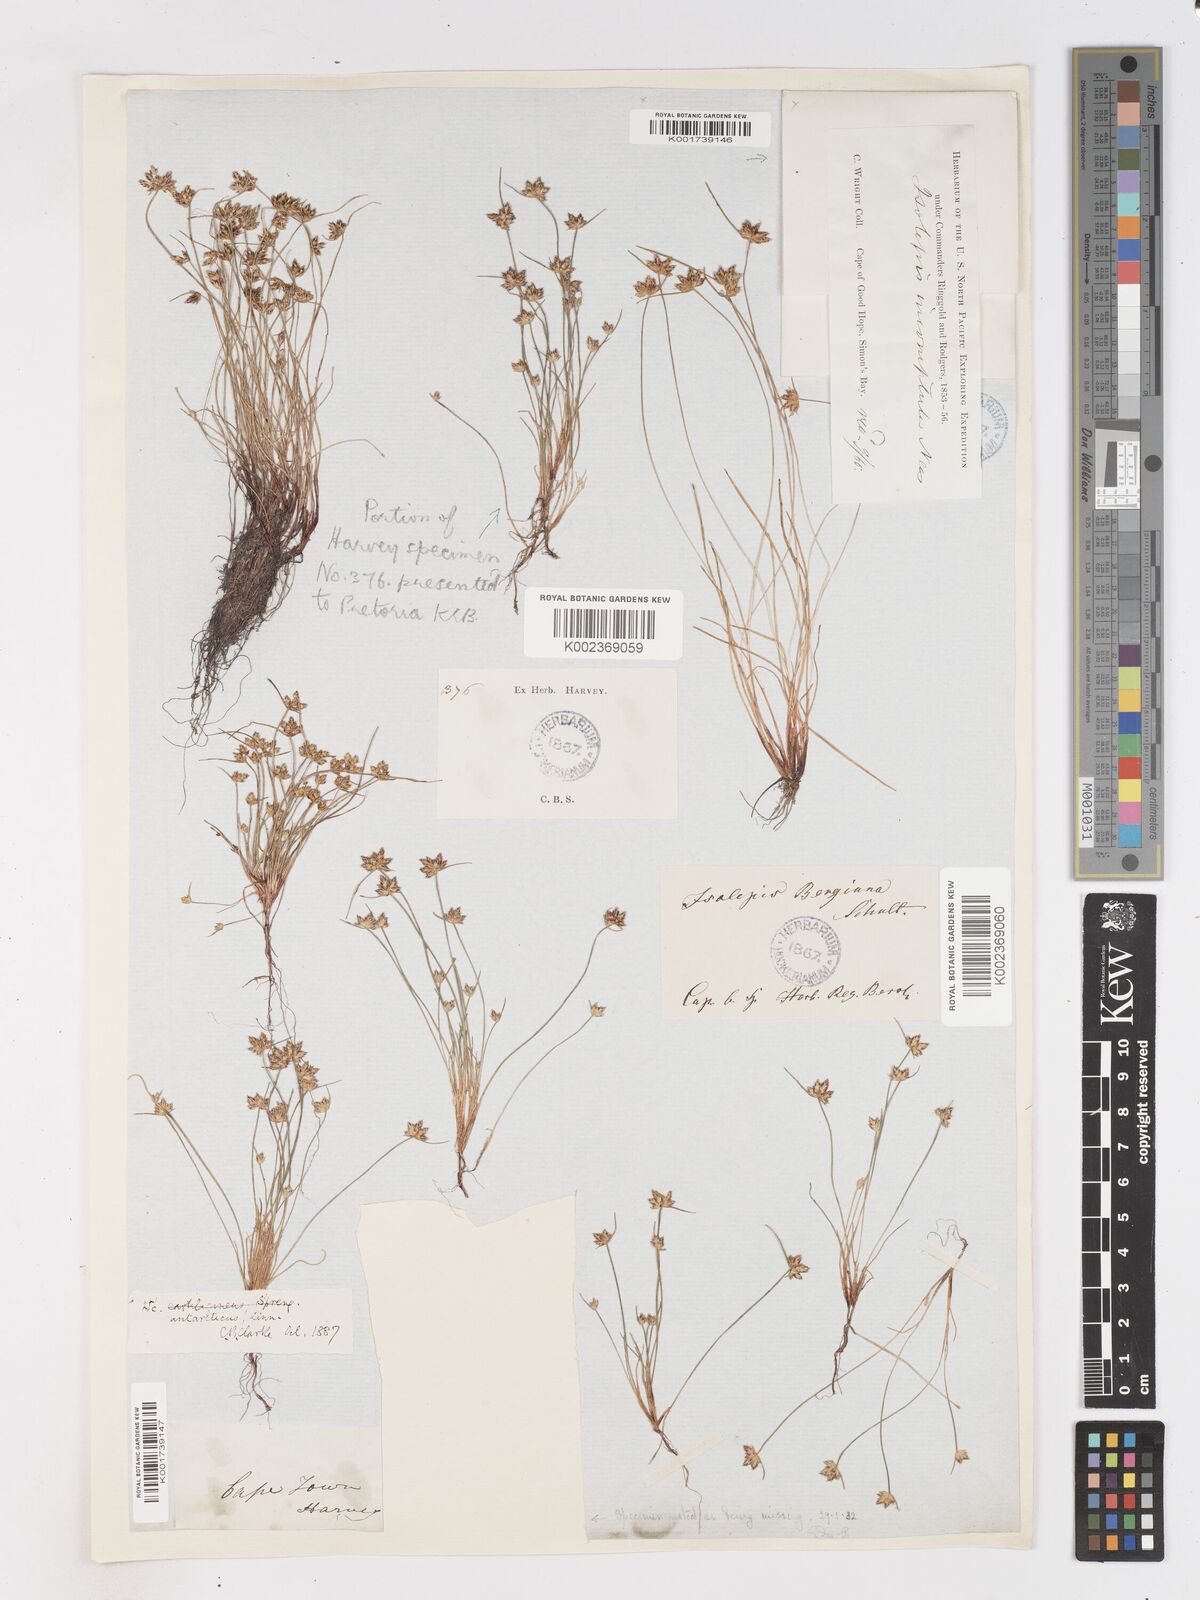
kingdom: Plantae
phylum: Tracheophyta
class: Liliopsida
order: Poales
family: Cyperaceae
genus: Isolepis
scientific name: Isolepis diabolica
